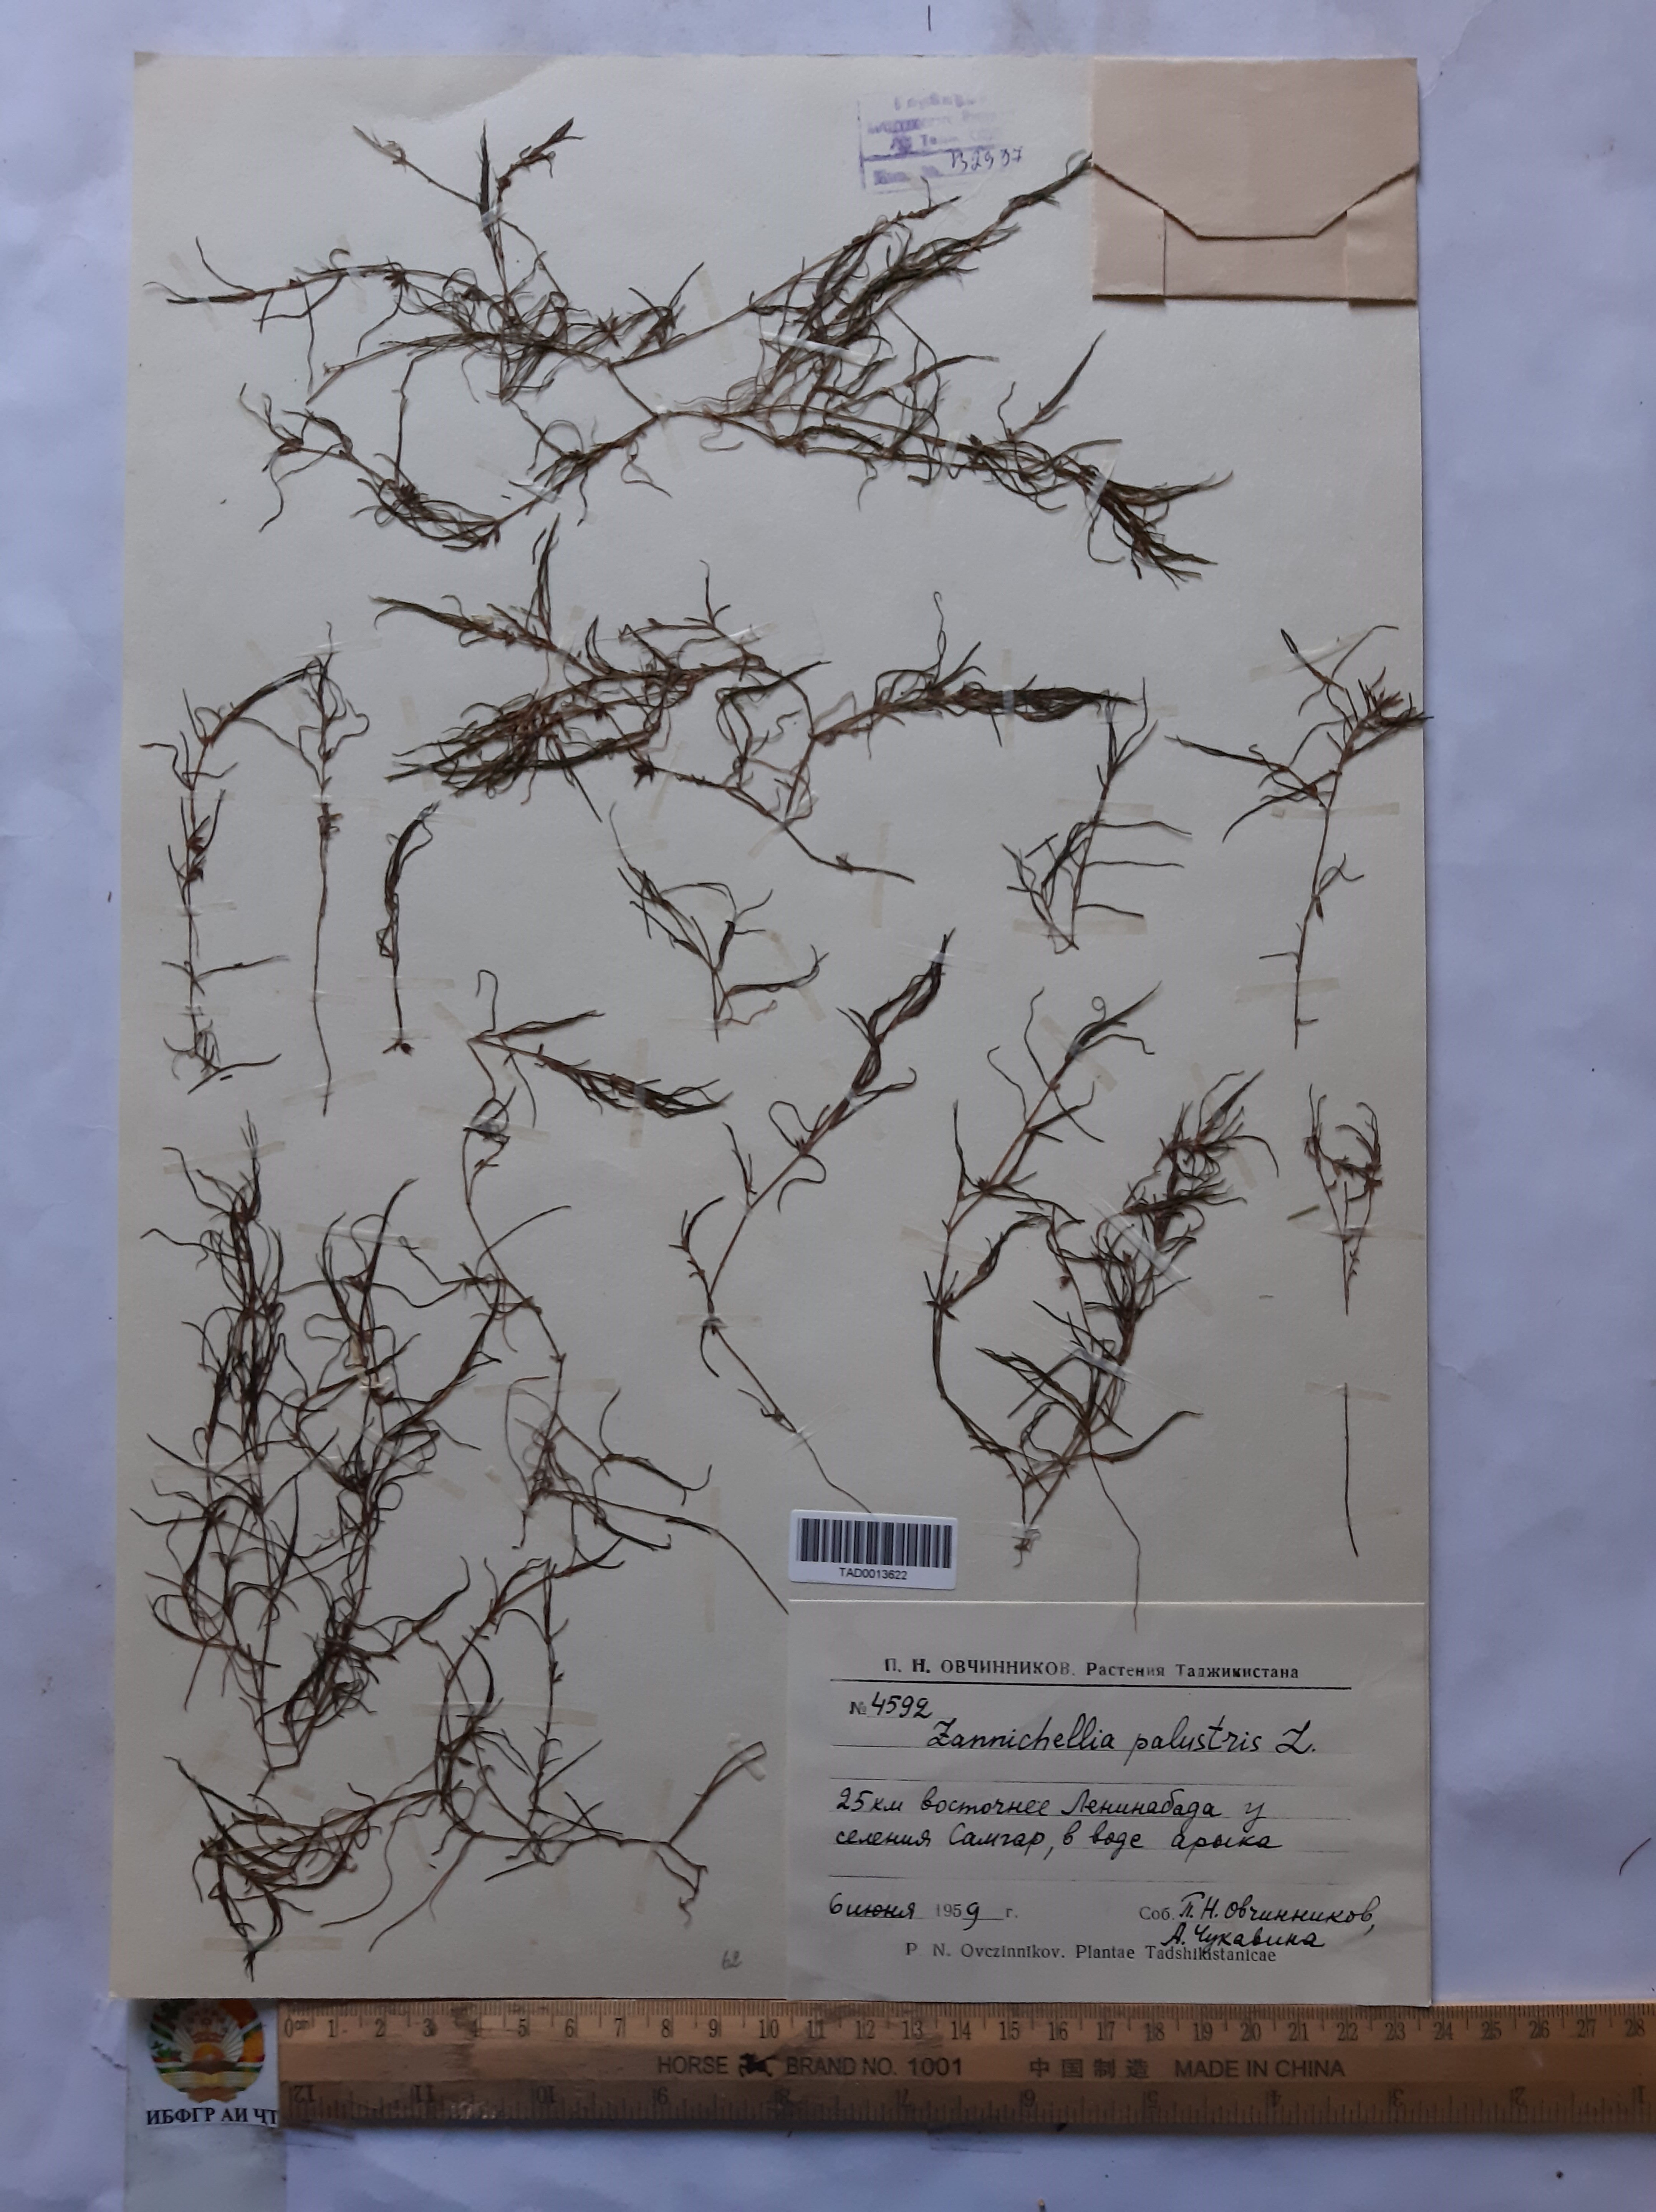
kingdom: Plantae
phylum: Tracheophyta
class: Liliopsida
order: Alismatales
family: Potamogetonaceae
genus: Zannichellia
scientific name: Zannichellia palustris
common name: Horned pondweed
